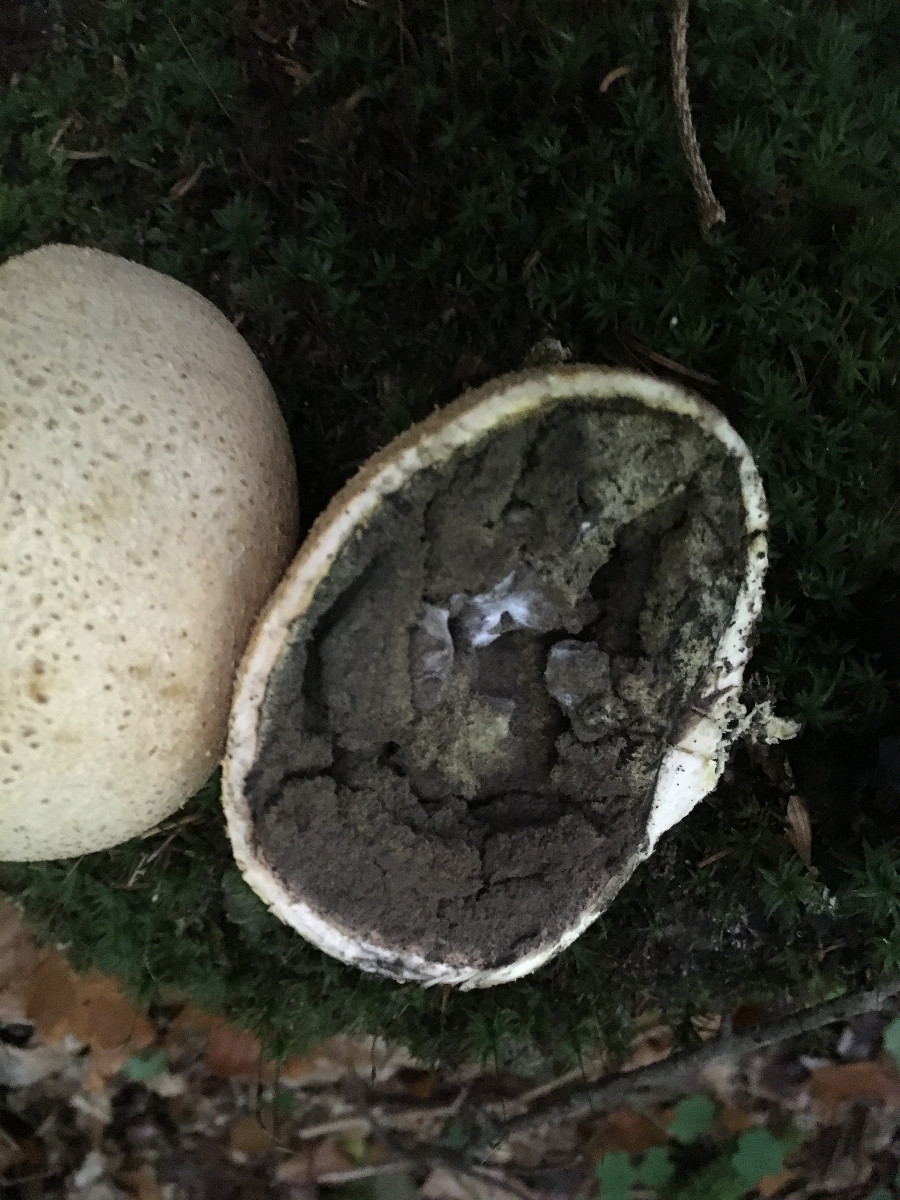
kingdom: Fungi
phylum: Basidiomycota
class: Agaricomycetes
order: Boletales
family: Sclerodermataceae
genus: Scleroderma
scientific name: Scleroderma citrinum
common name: almindelig bruskbold
